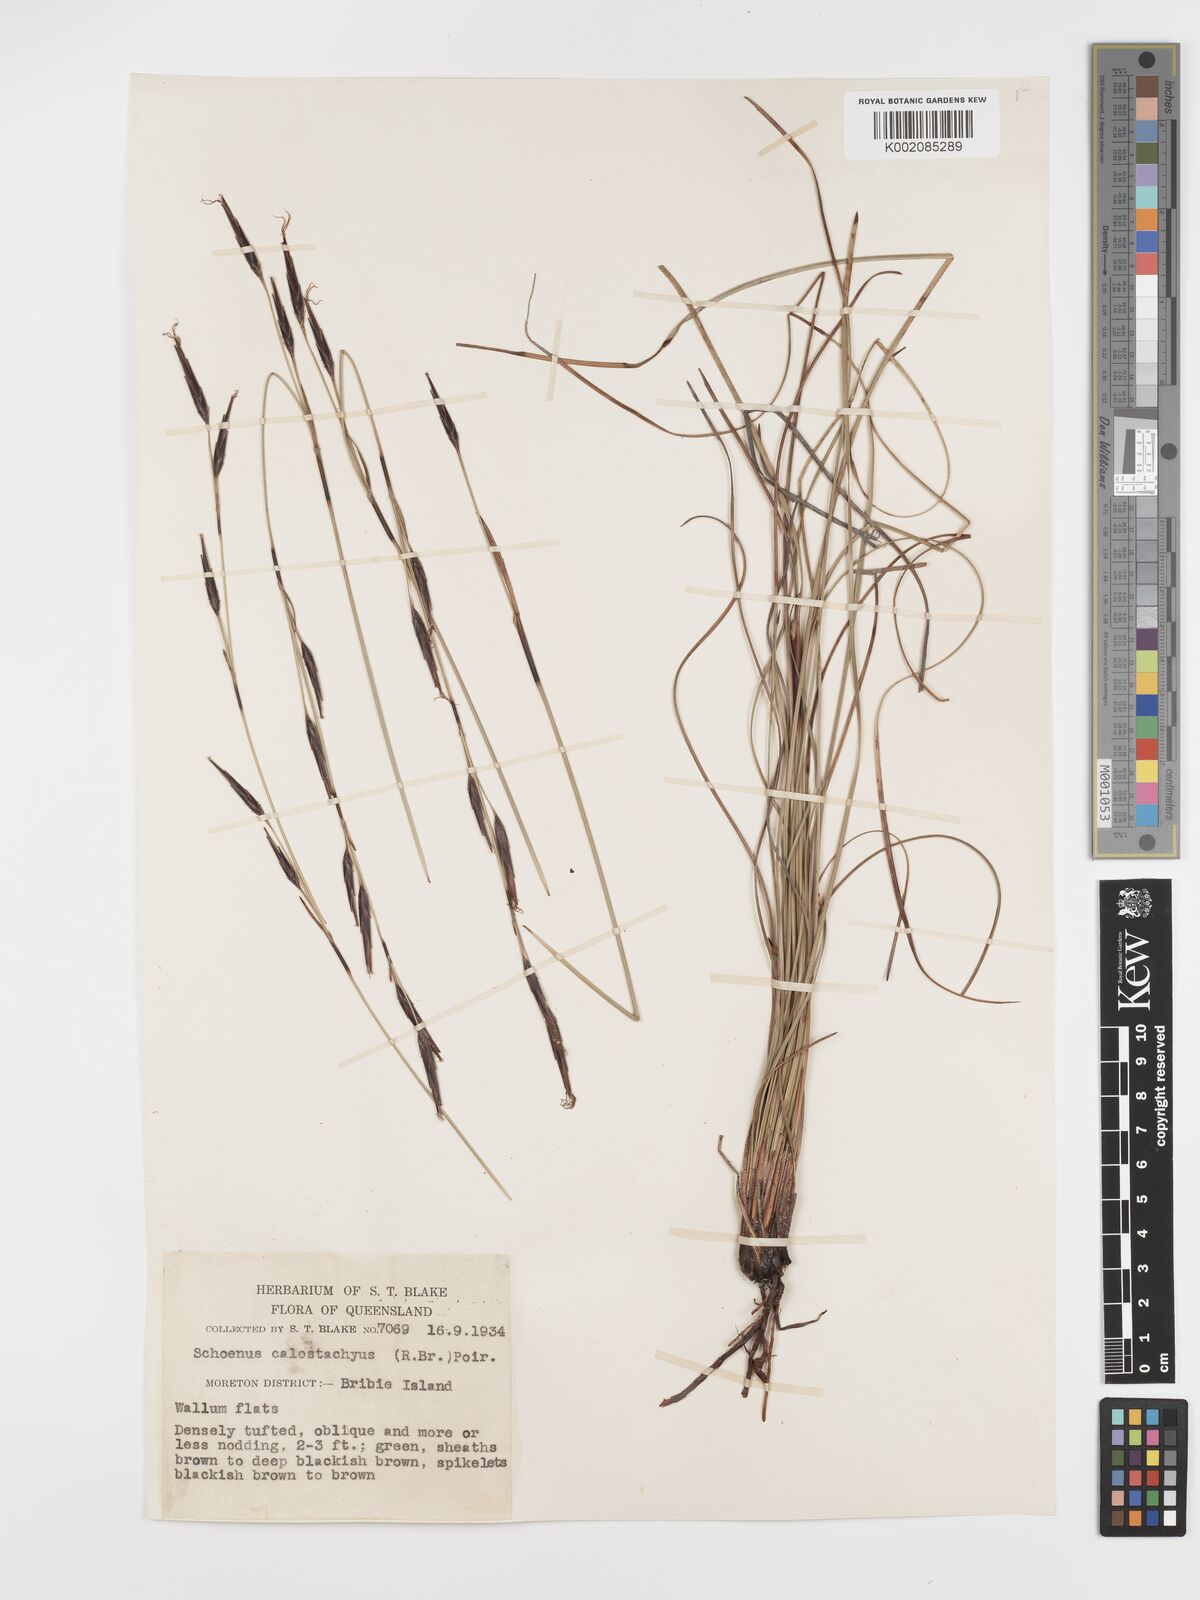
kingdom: Plantae
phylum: Tracheophyta
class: Liliopsida
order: Poales
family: Cyperaceae
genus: Schoenus
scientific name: Schoenus calostachyus
